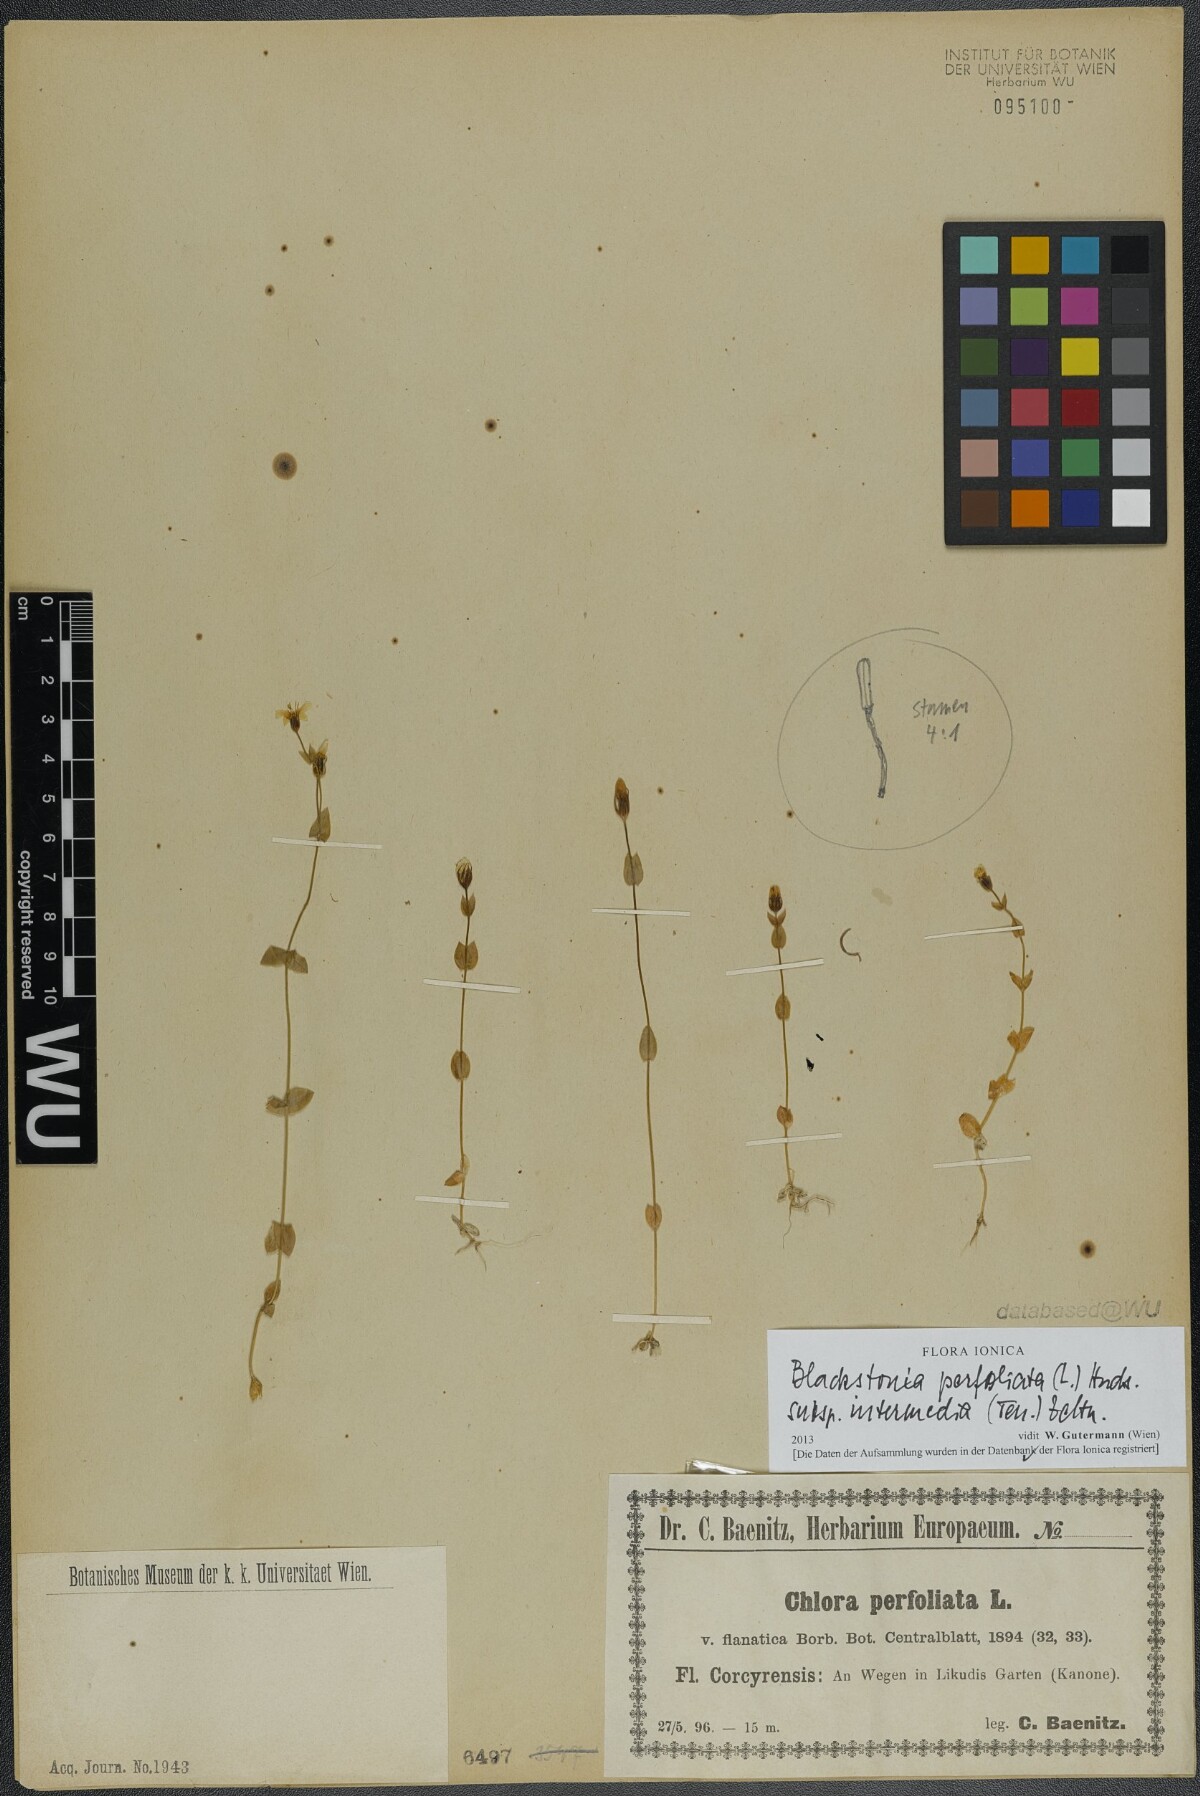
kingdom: Plantae
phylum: Tracheophyta
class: Magnoliopsida
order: Gentianales
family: Gentianaceae
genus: Blackstonia
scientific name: Blackstonia perfoliata
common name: Yellow-wort
